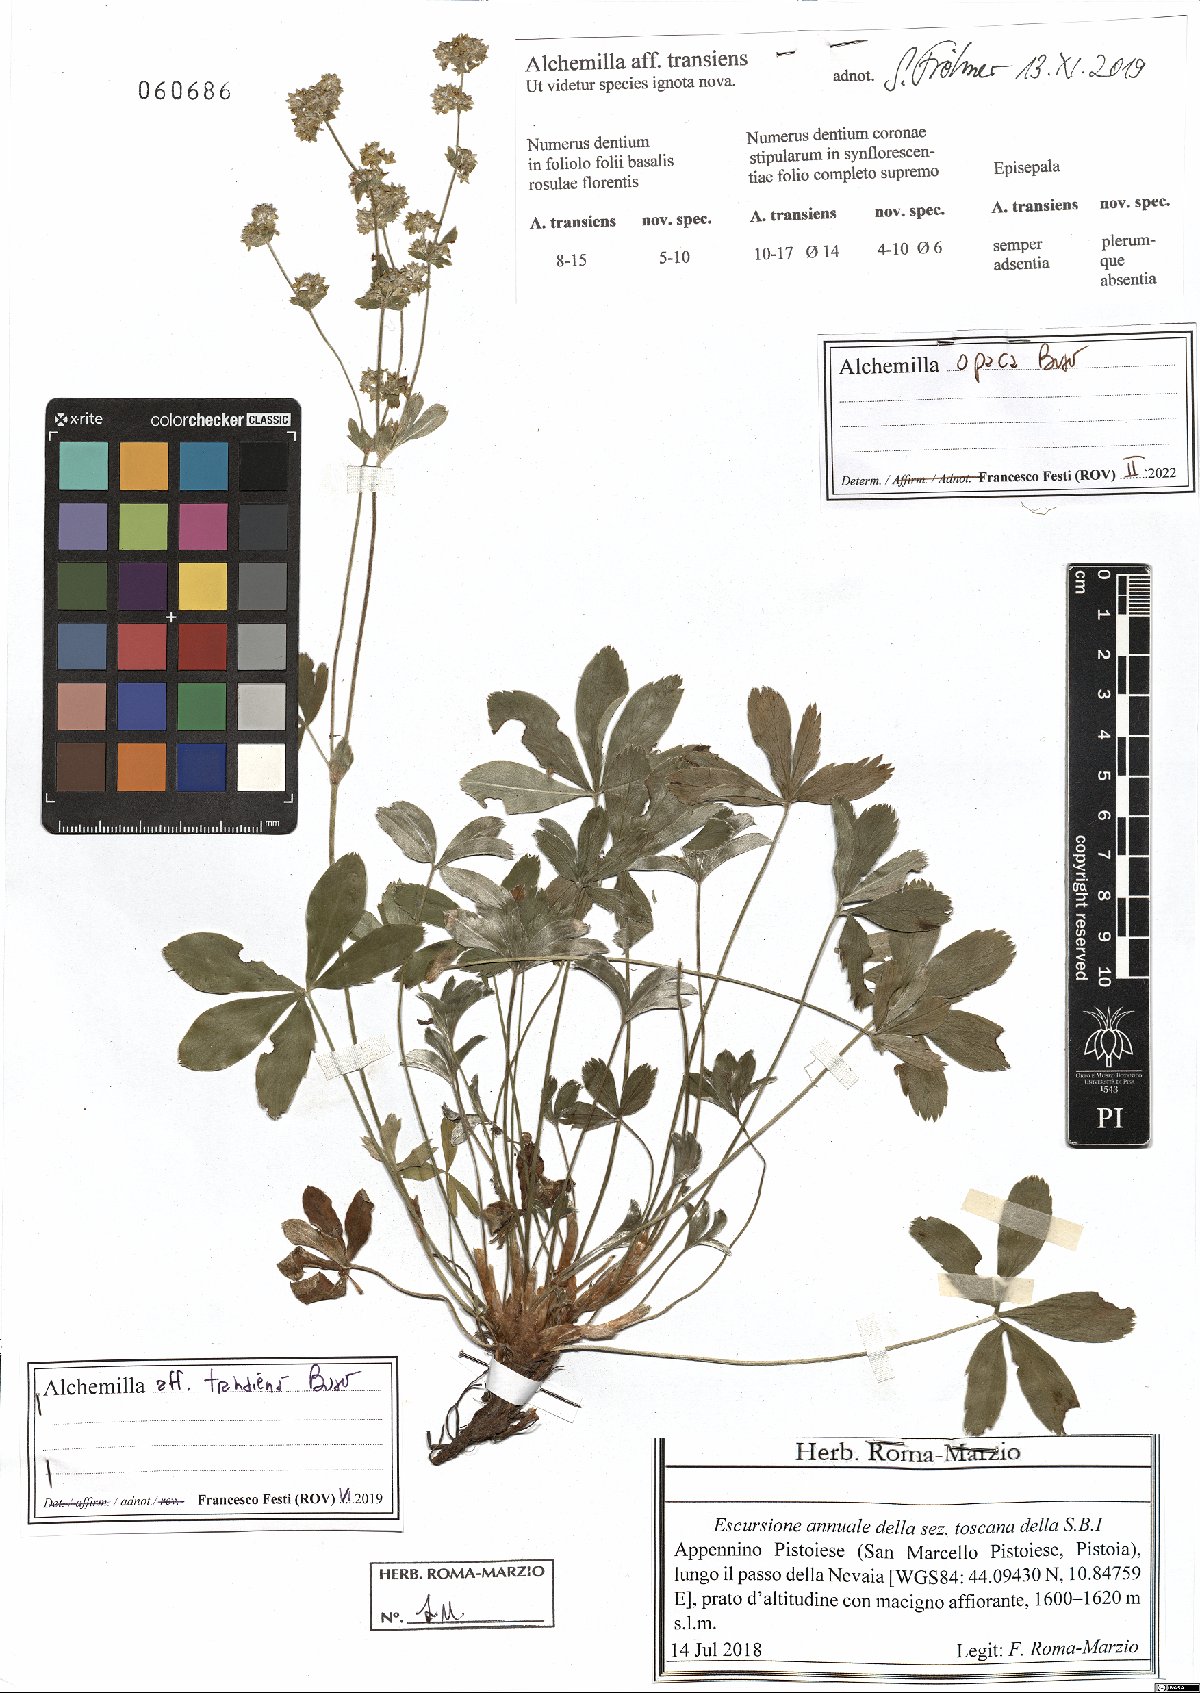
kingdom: Plantae
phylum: Tracheophyta
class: Magnoliopsida
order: Rosales
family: Rosaceae
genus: Alchemilla
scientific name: Alchemilla opaca
